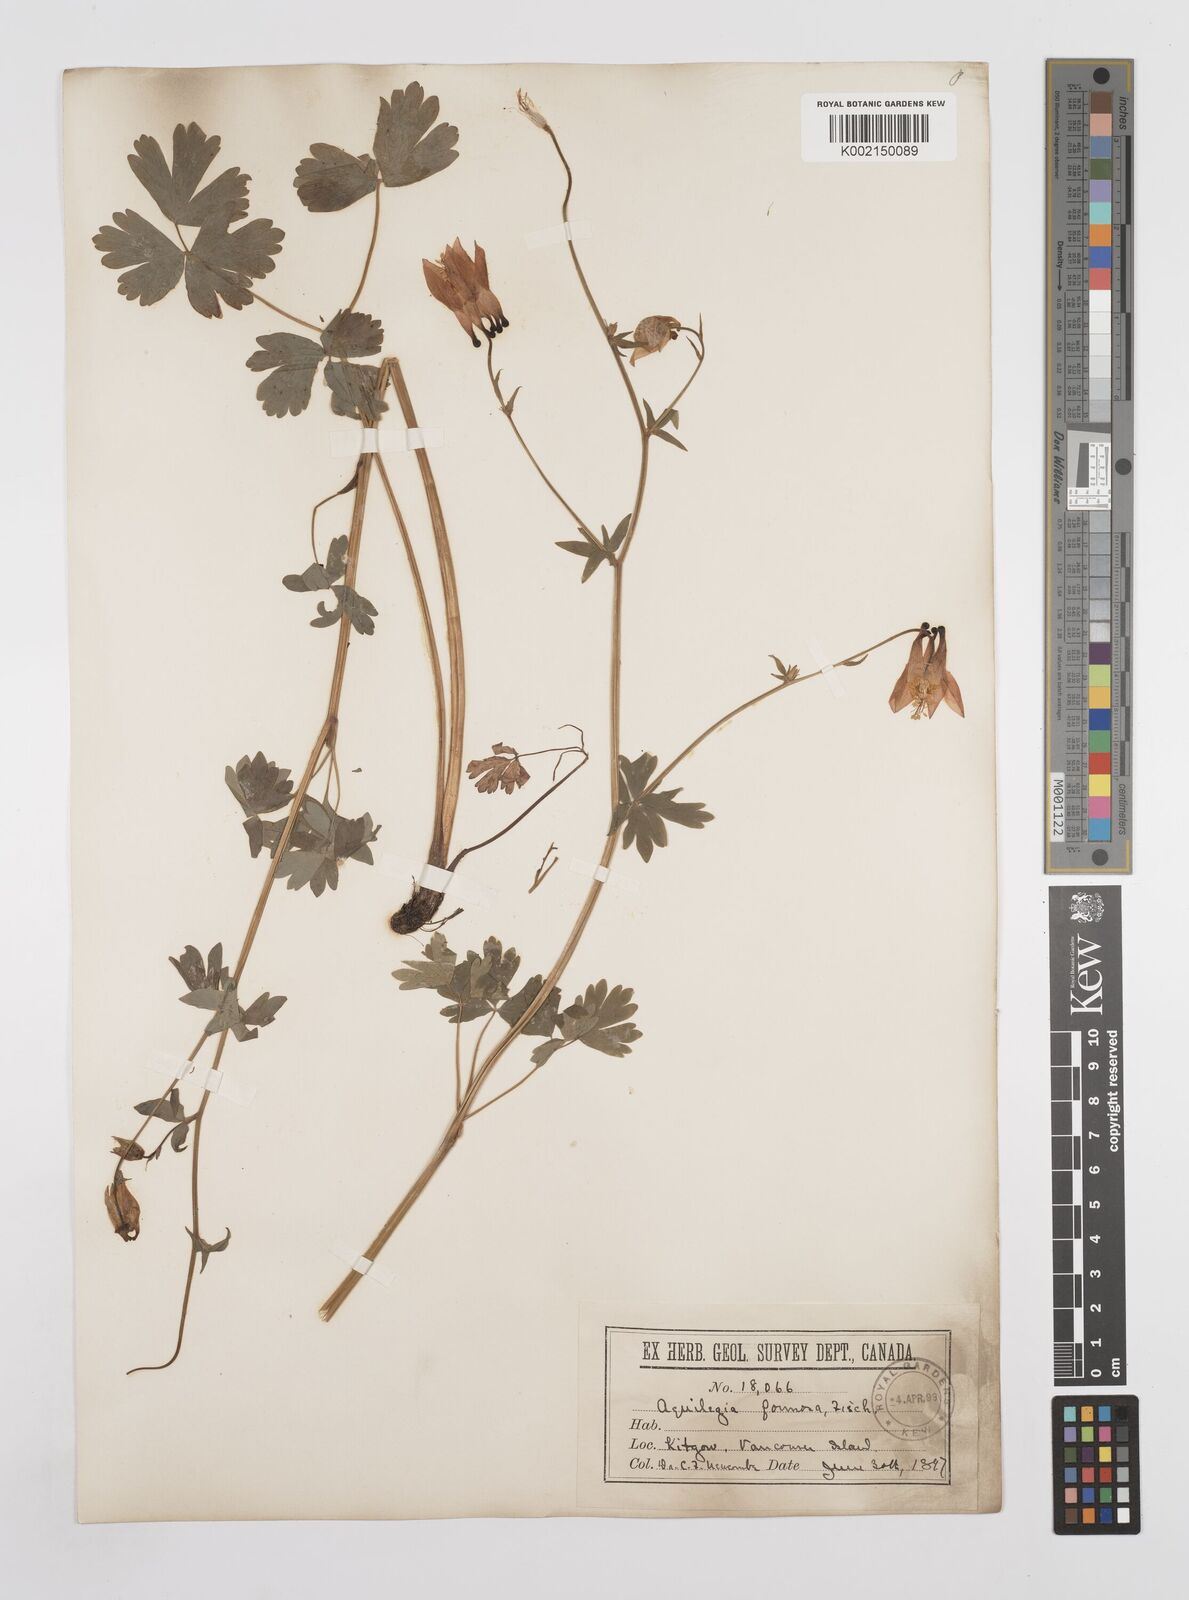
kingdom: Plantae
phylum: Tracheophyta
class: Magnoliopsida
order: Ranunculales
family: Ranunculaceae
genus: Aquilegia
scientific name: Aquilegia
